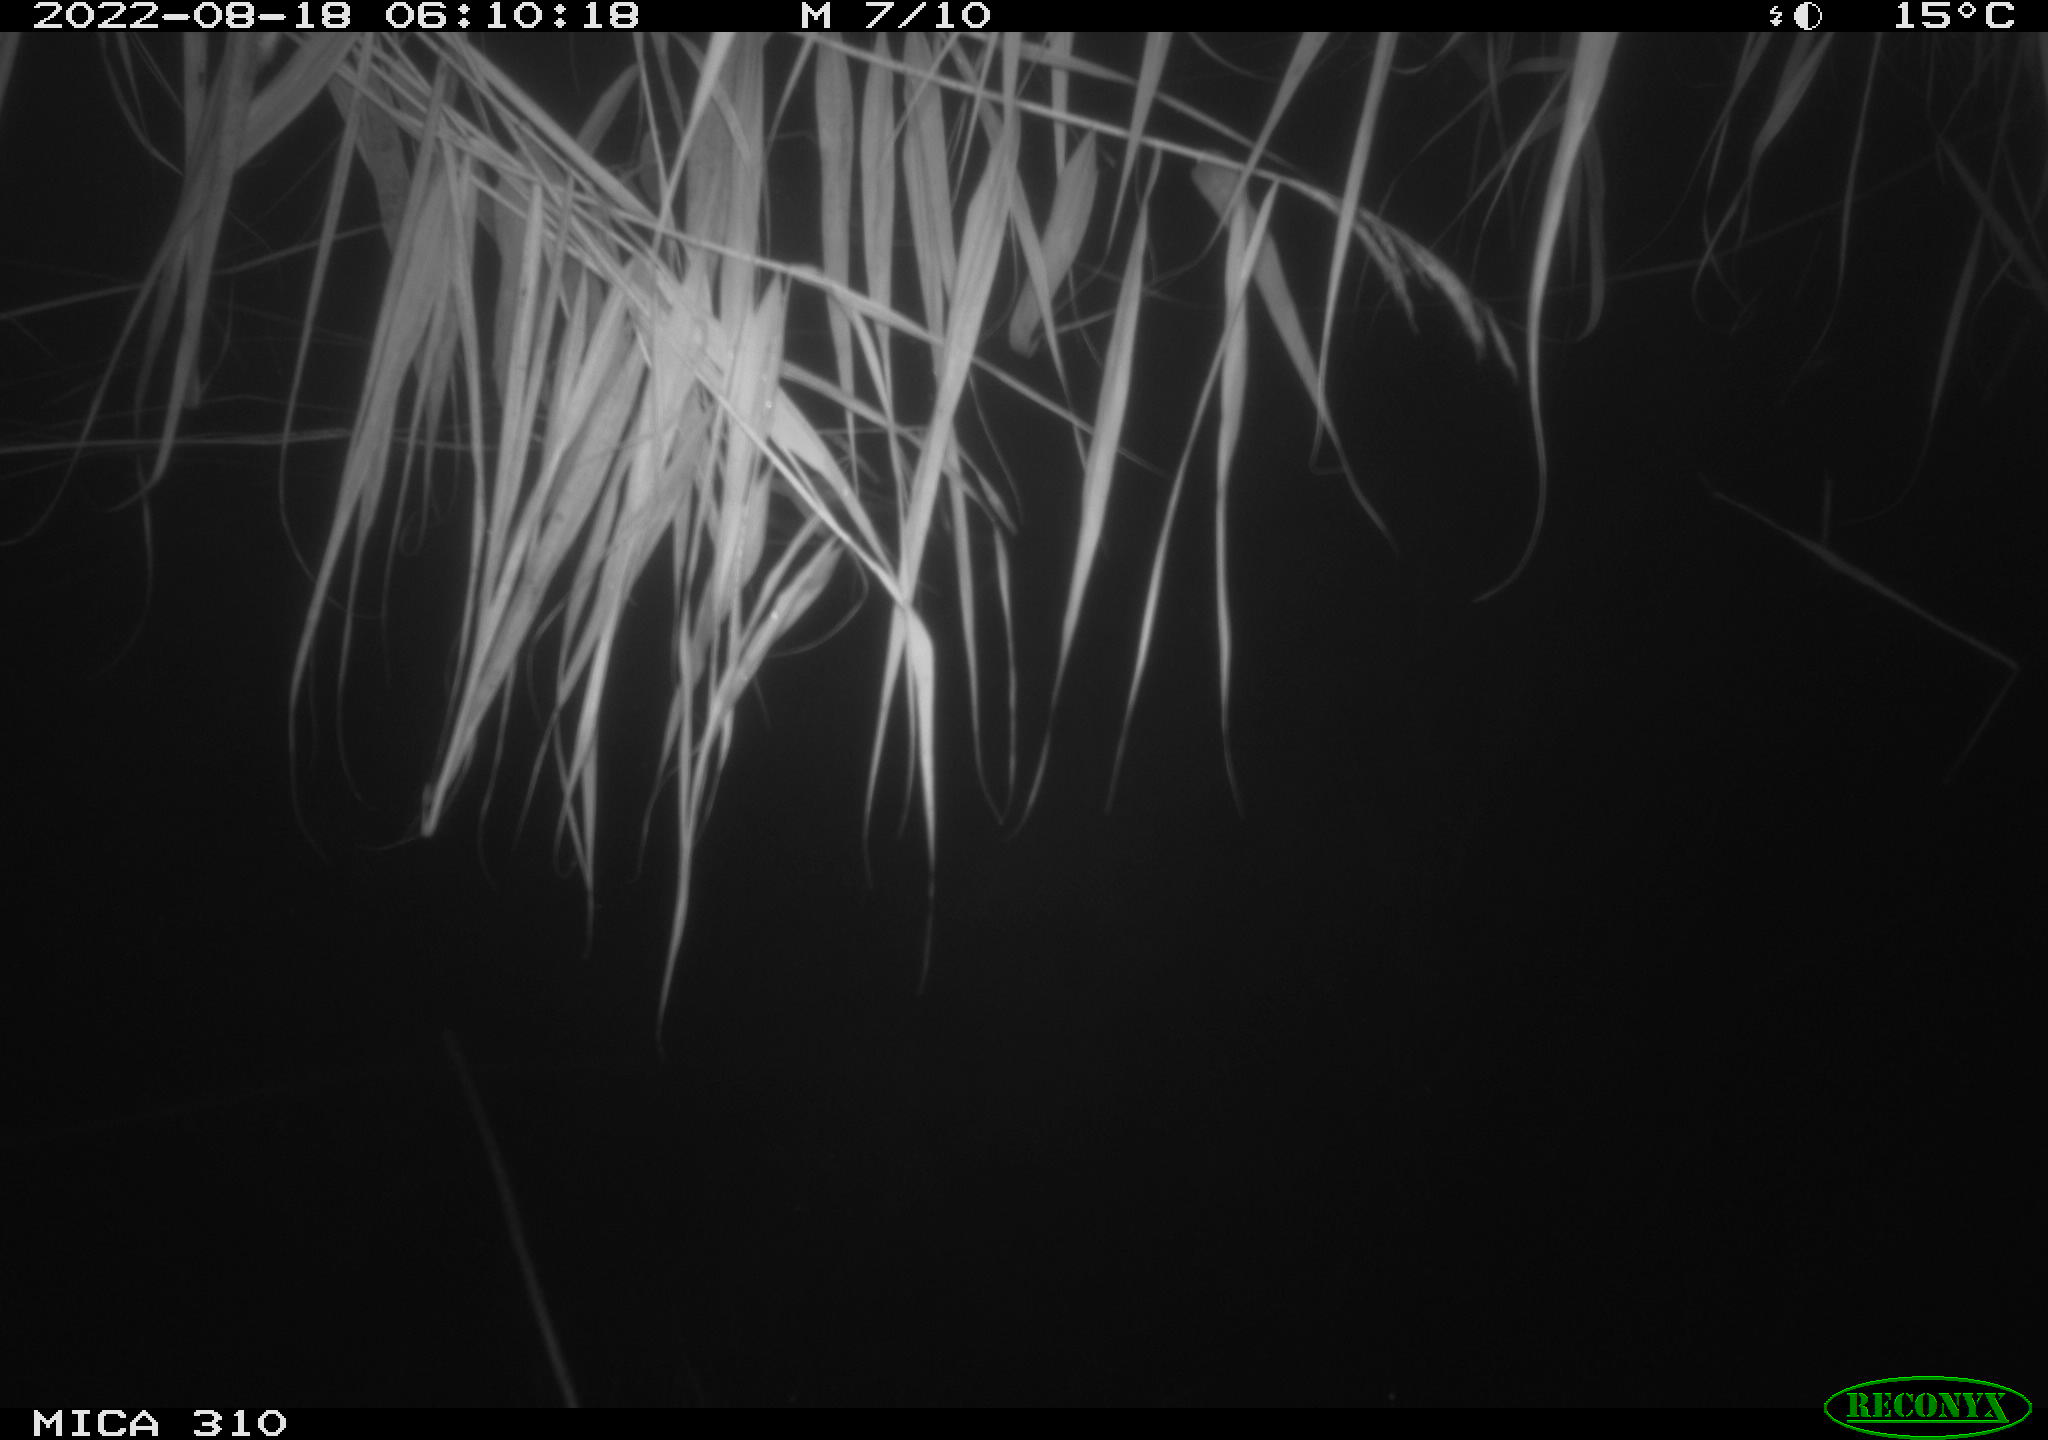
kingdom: Animalia
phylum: Chordata
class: Aves
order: Gruiformes
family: Rallidae
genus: Fulica
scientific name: Fulica atra
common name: Eurasian coot
